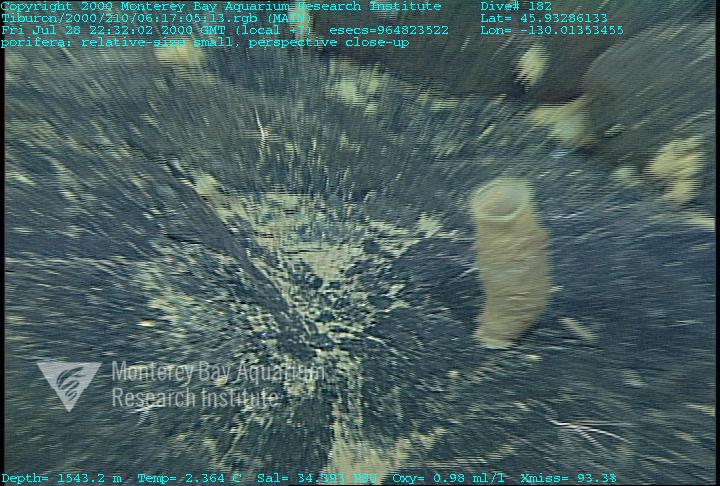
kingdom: Animalia
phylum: Porifera
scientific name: Porifera
